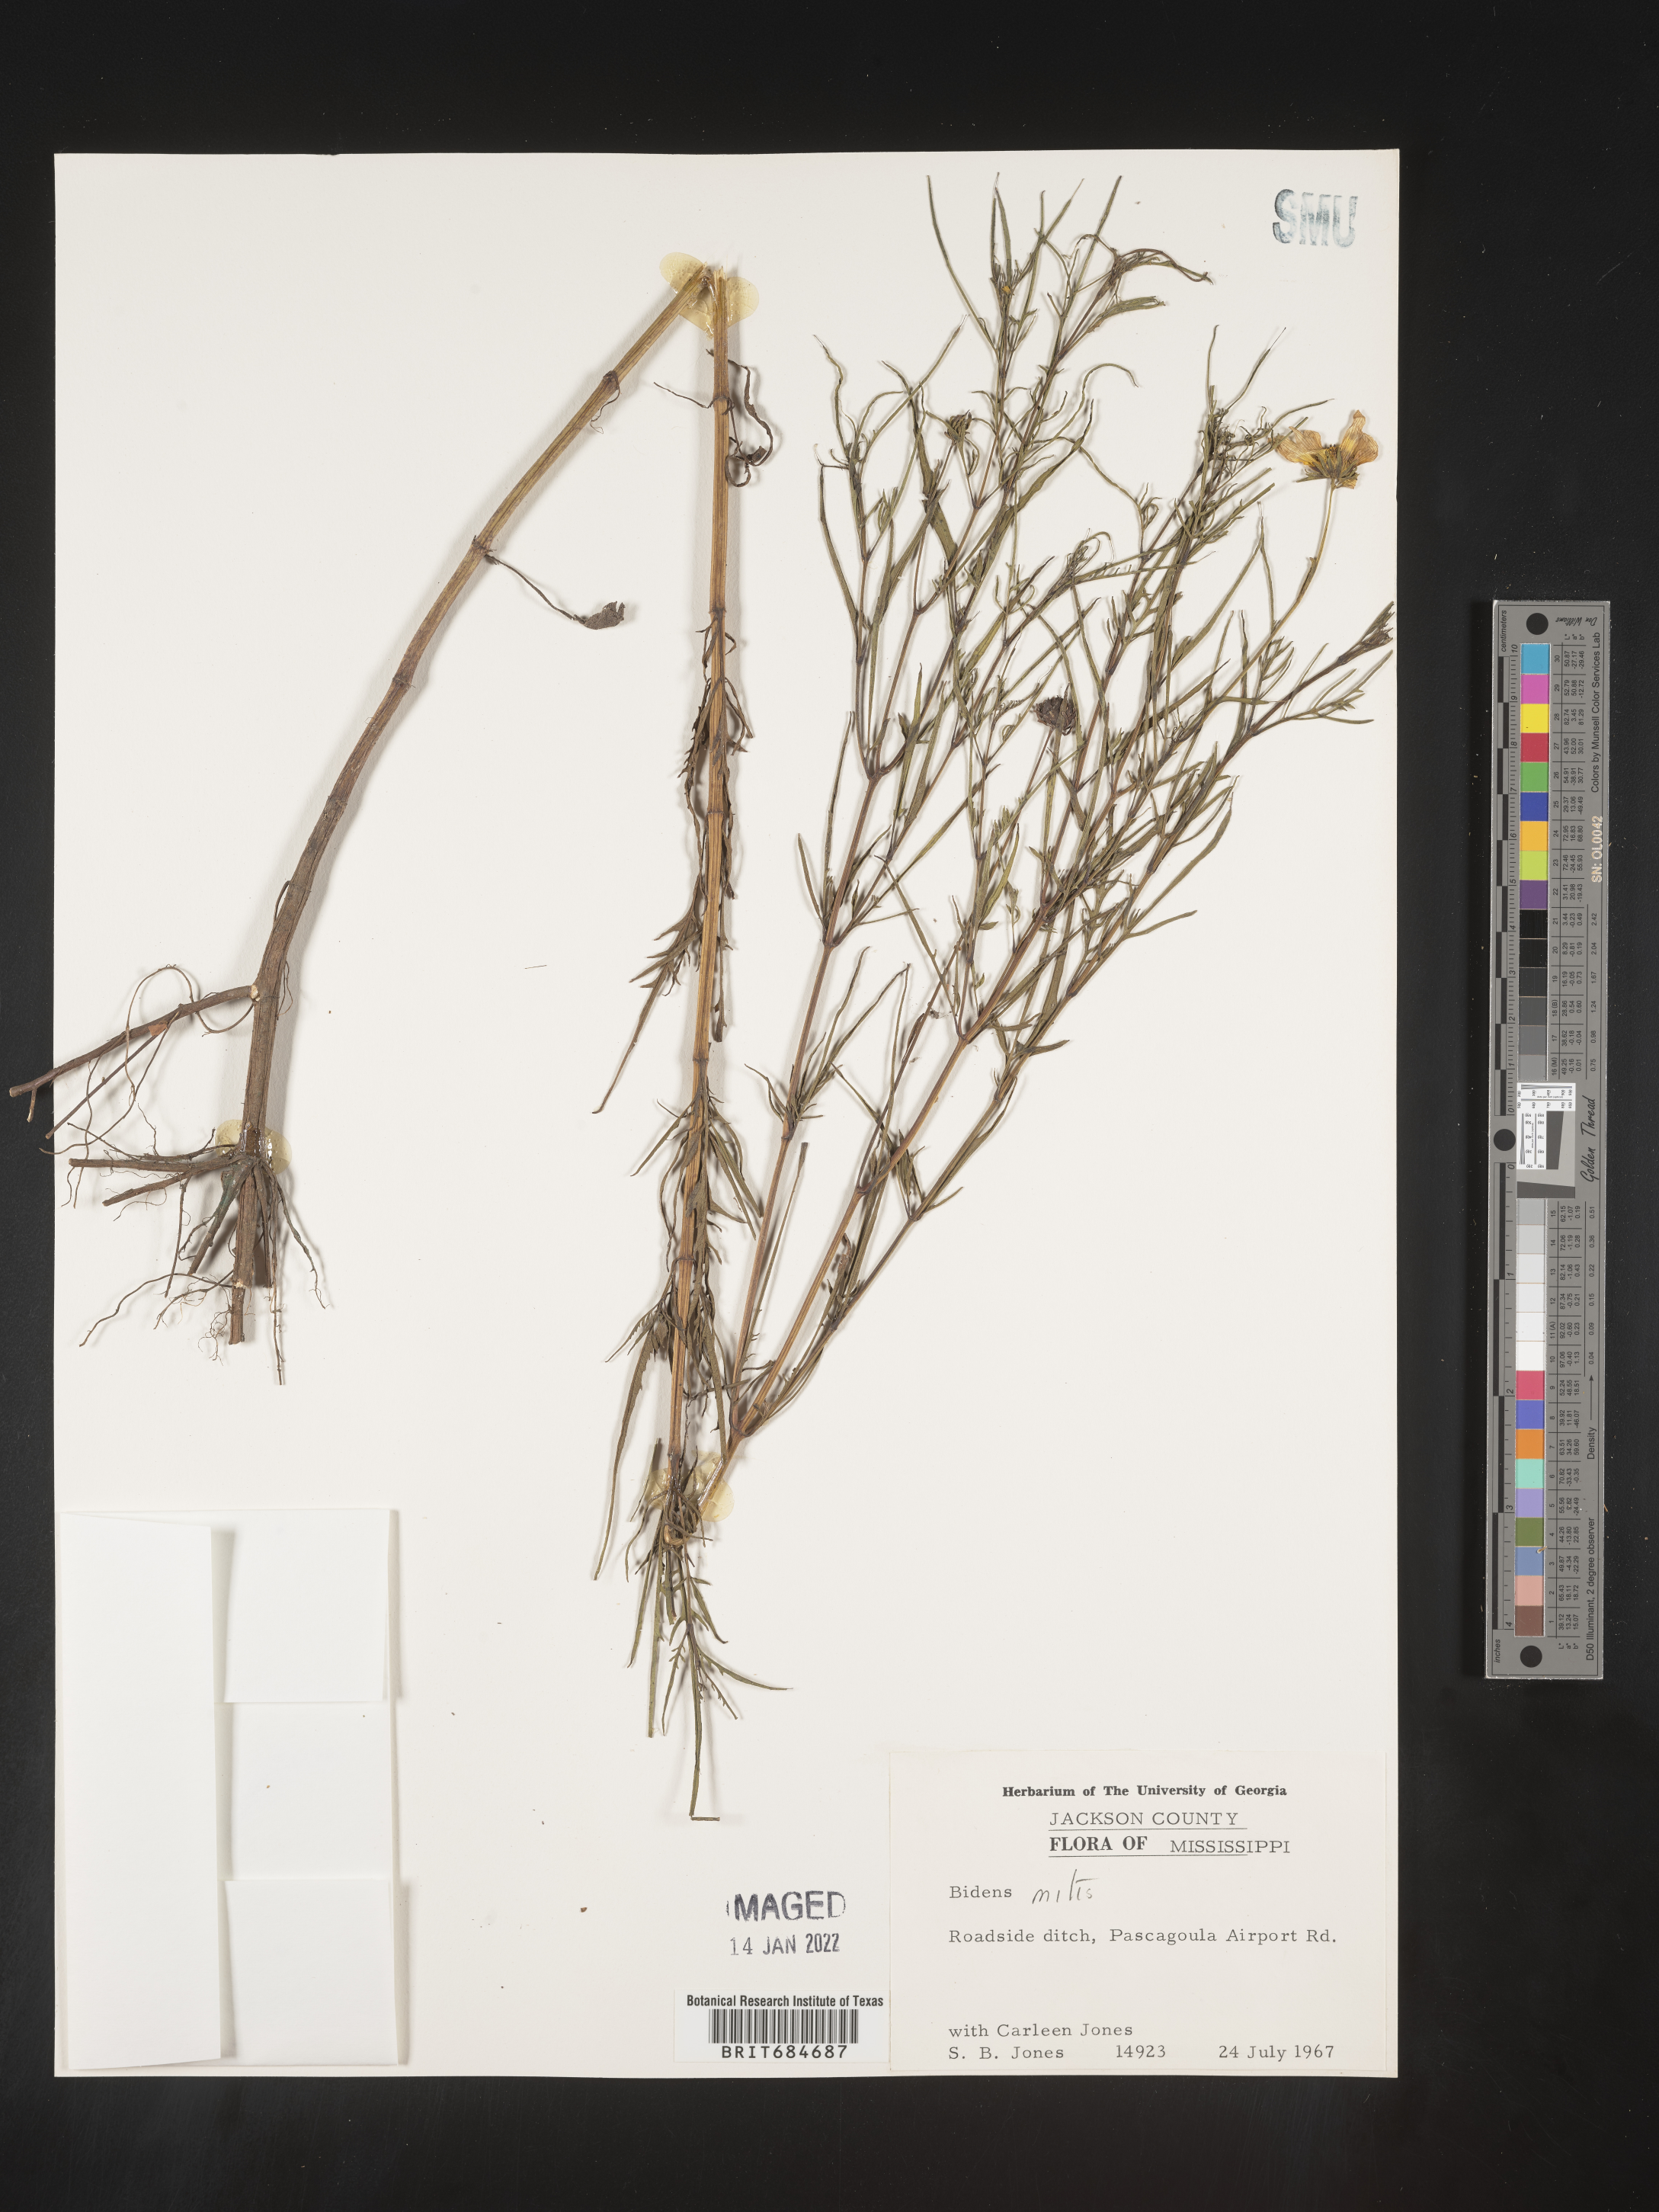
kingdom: Plantae
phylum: Tracheophyta
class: Magnoliopsida
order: Asterales
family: Asteraceae
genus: Bidens
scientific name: Bidens mitis
